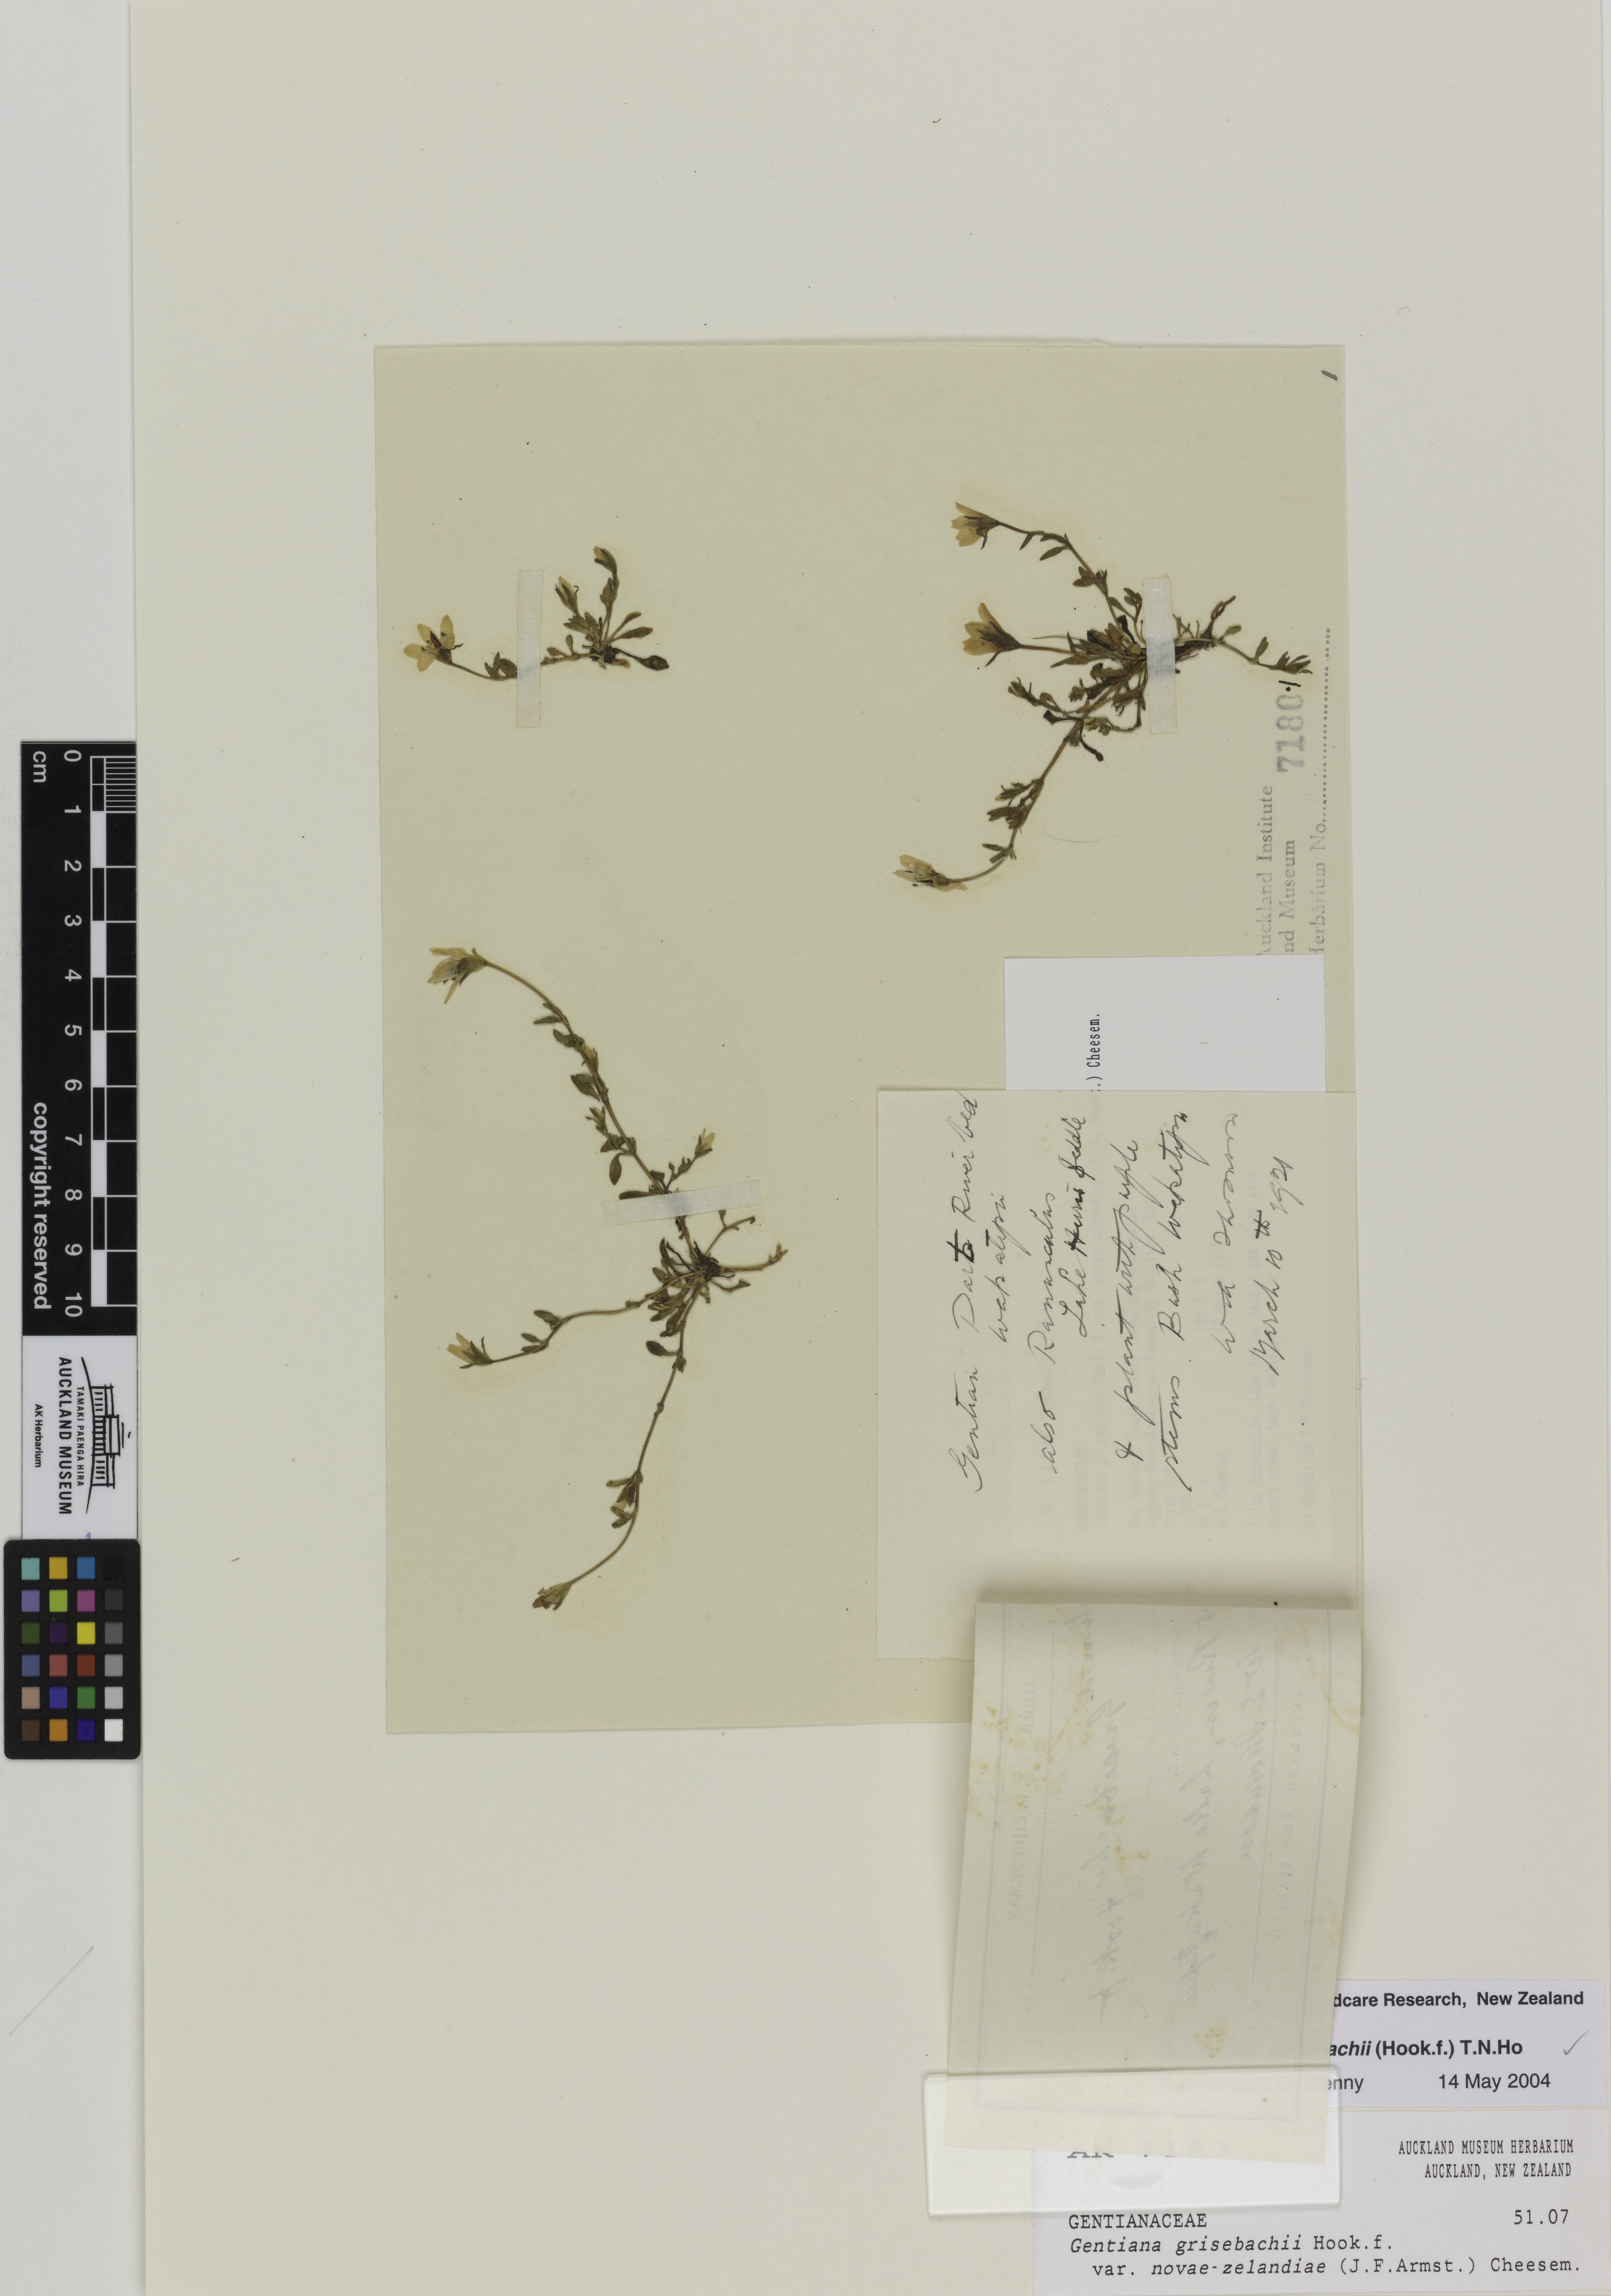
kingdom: Plantae
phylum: Tracheophyta
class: Magnoliopsida
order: Gentianales
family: Gentianaceae
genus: Gentianella
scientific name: Gentianella grisebachii
